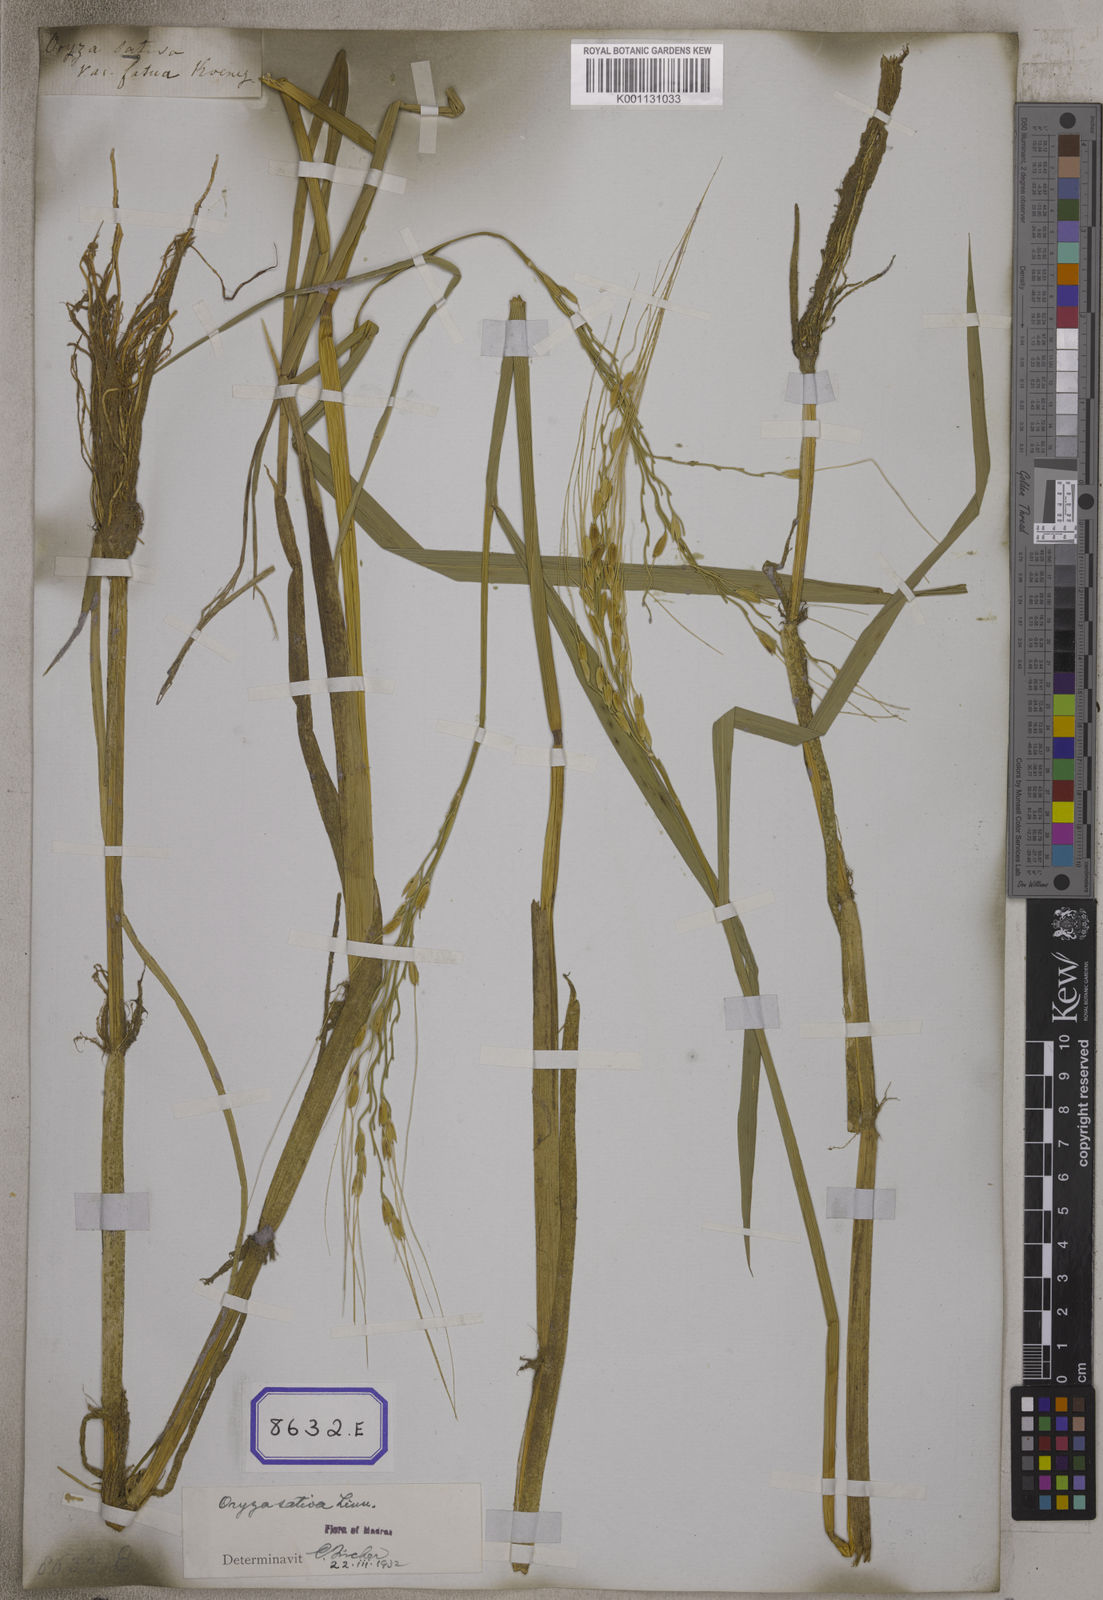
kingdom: Plantae
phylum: Tracheophyta
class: Liliopsida
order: Poales
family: Poaceae
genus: Oryza
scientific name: Oryza sativa
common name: Rice
